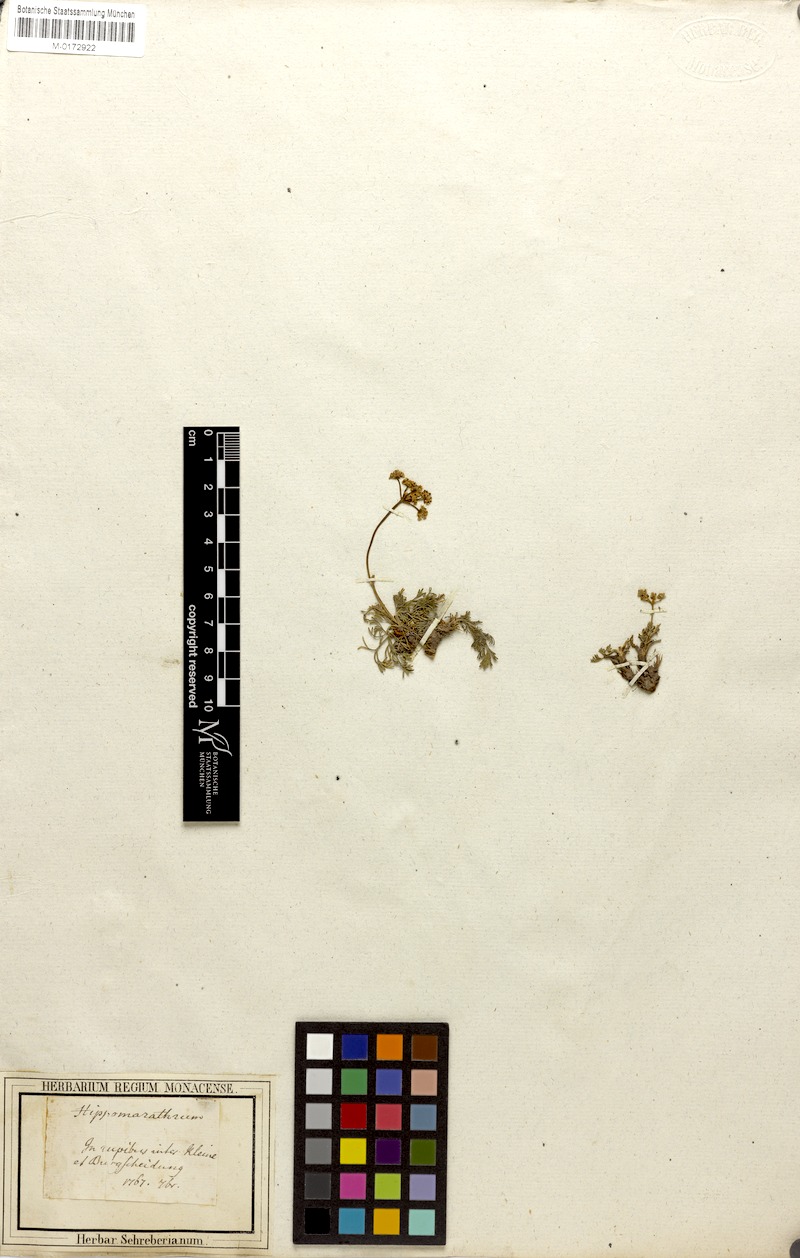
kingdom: Plantae
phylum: Tracheophyta
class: Magnoliopsida
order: Apiales
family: Apiaceae
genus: Hippomarathrum
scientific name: Hippomarathrum vulgare
